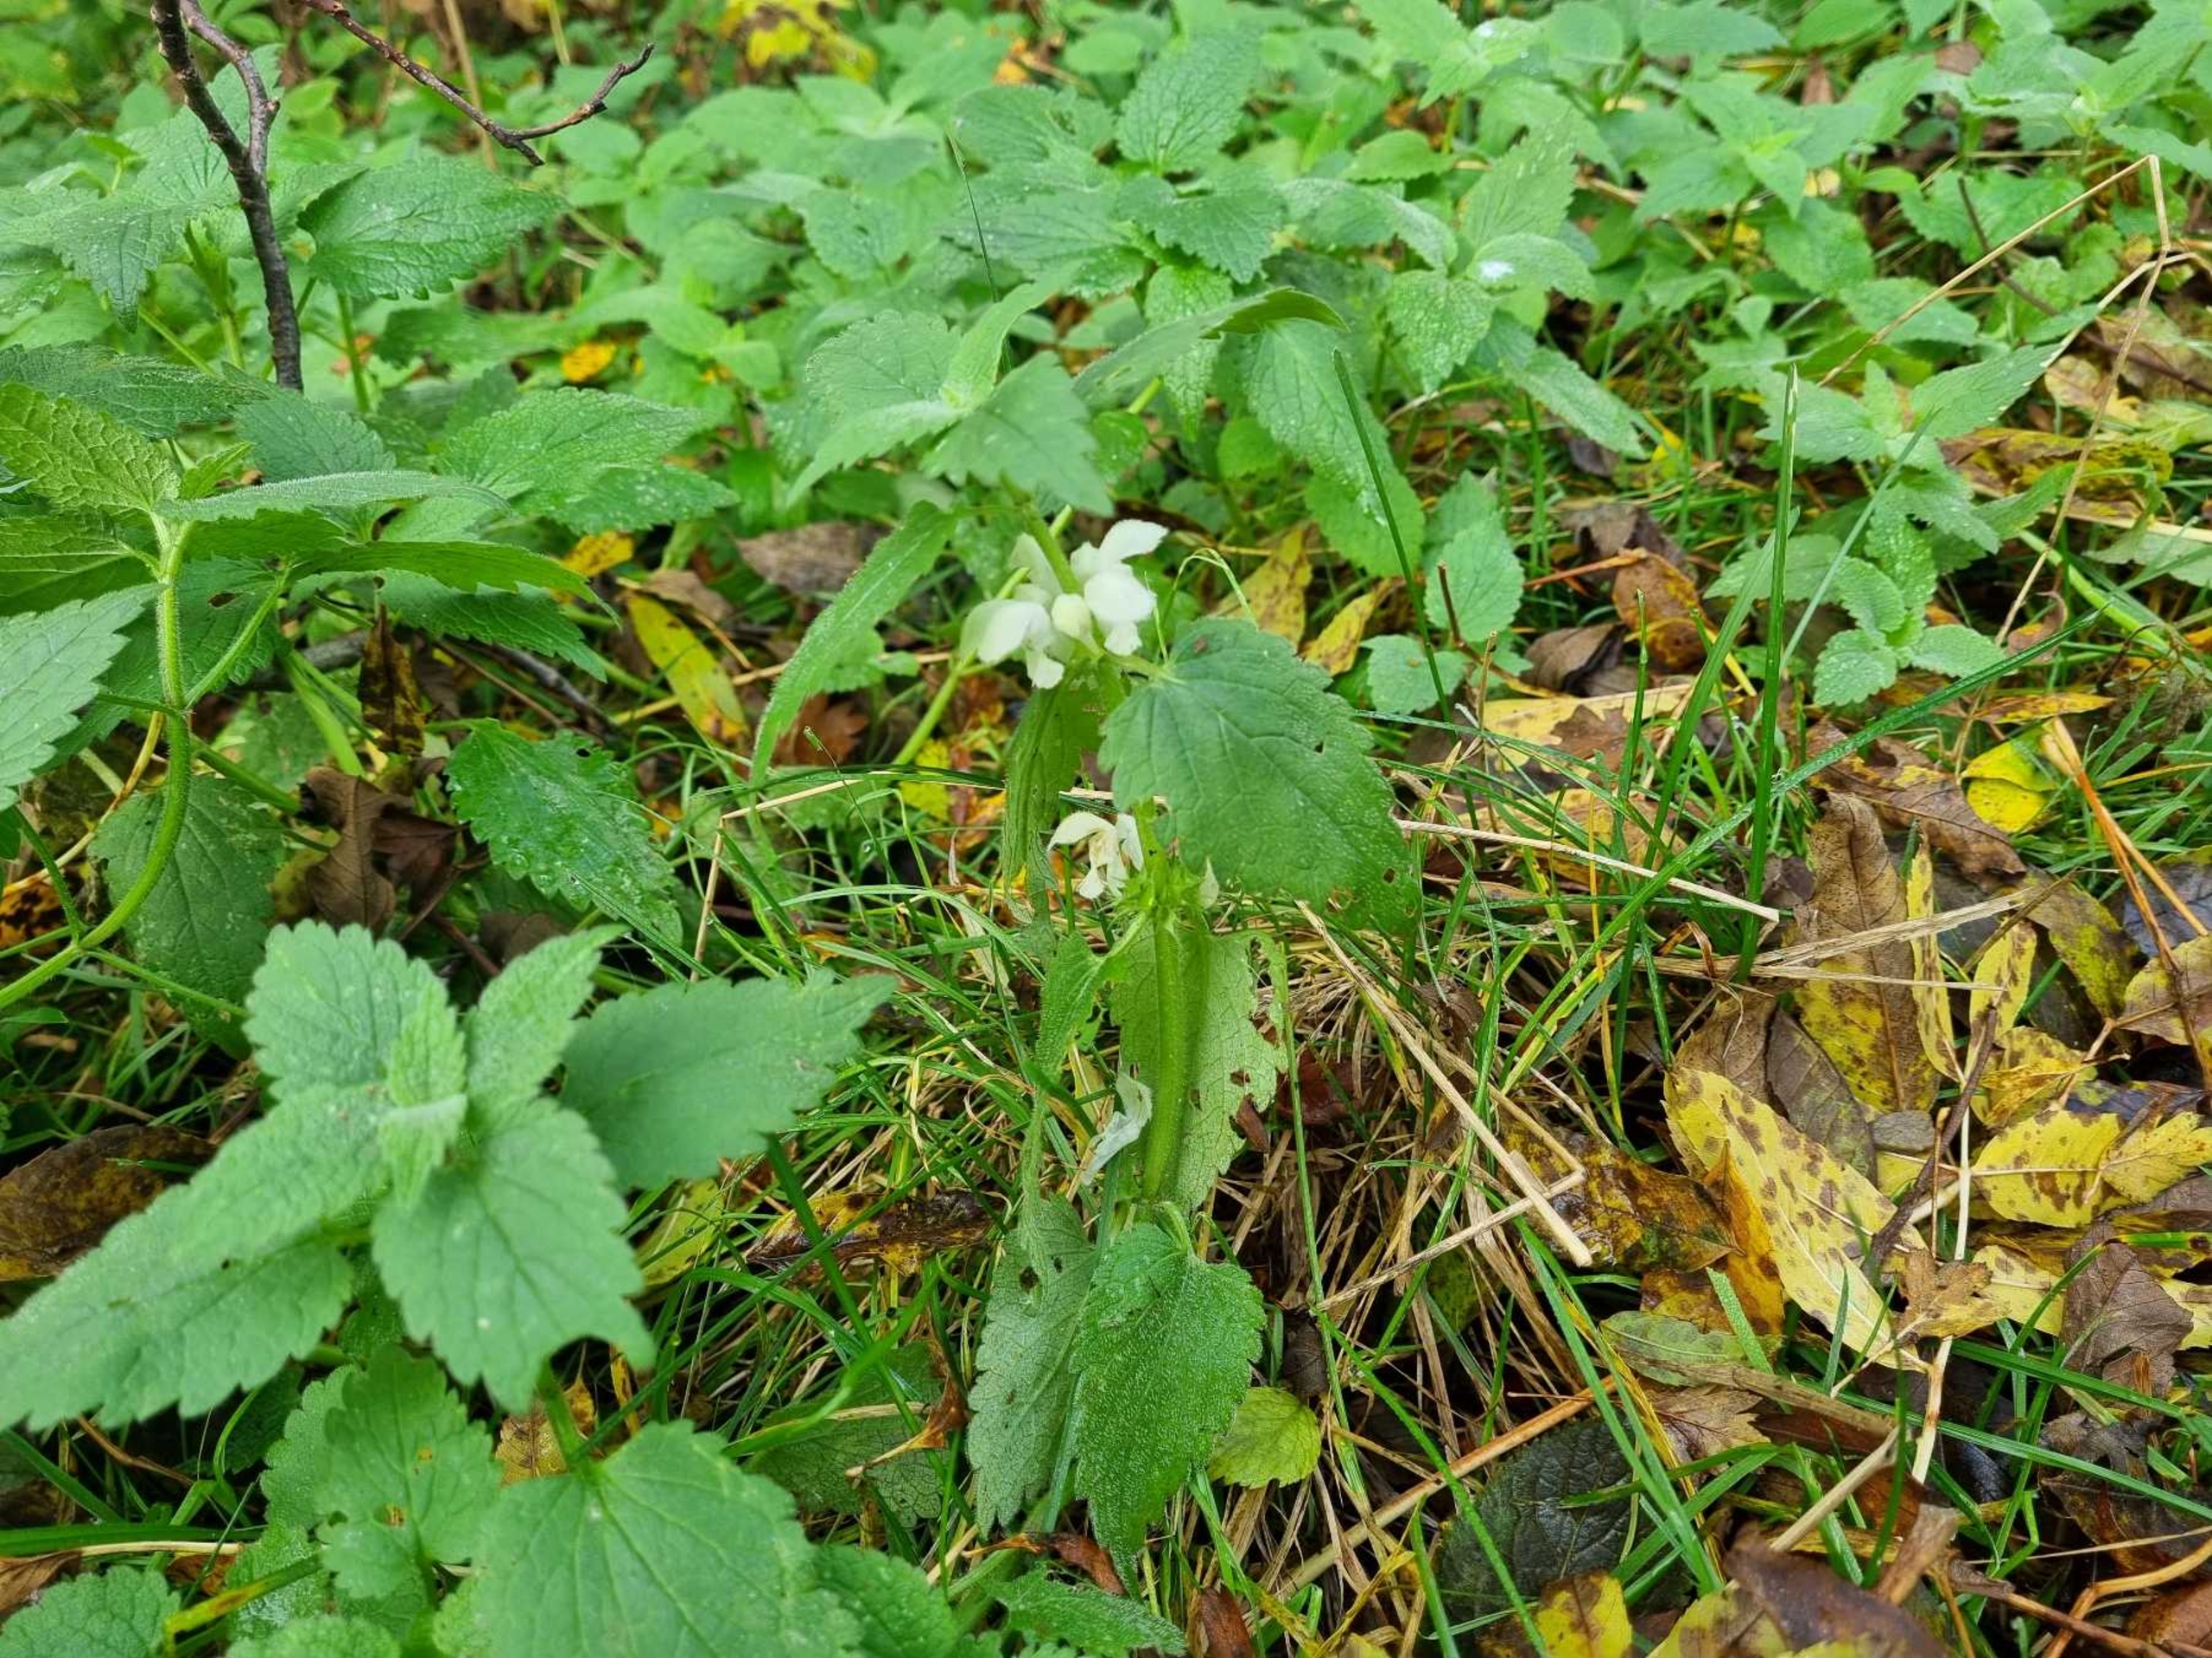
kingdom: Plantae
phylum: Tracheophyta
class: Magnoliopsida
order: Lamiales
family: Lamiaceae
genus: Lamium
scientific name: Lamium album
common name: Døvnælde
